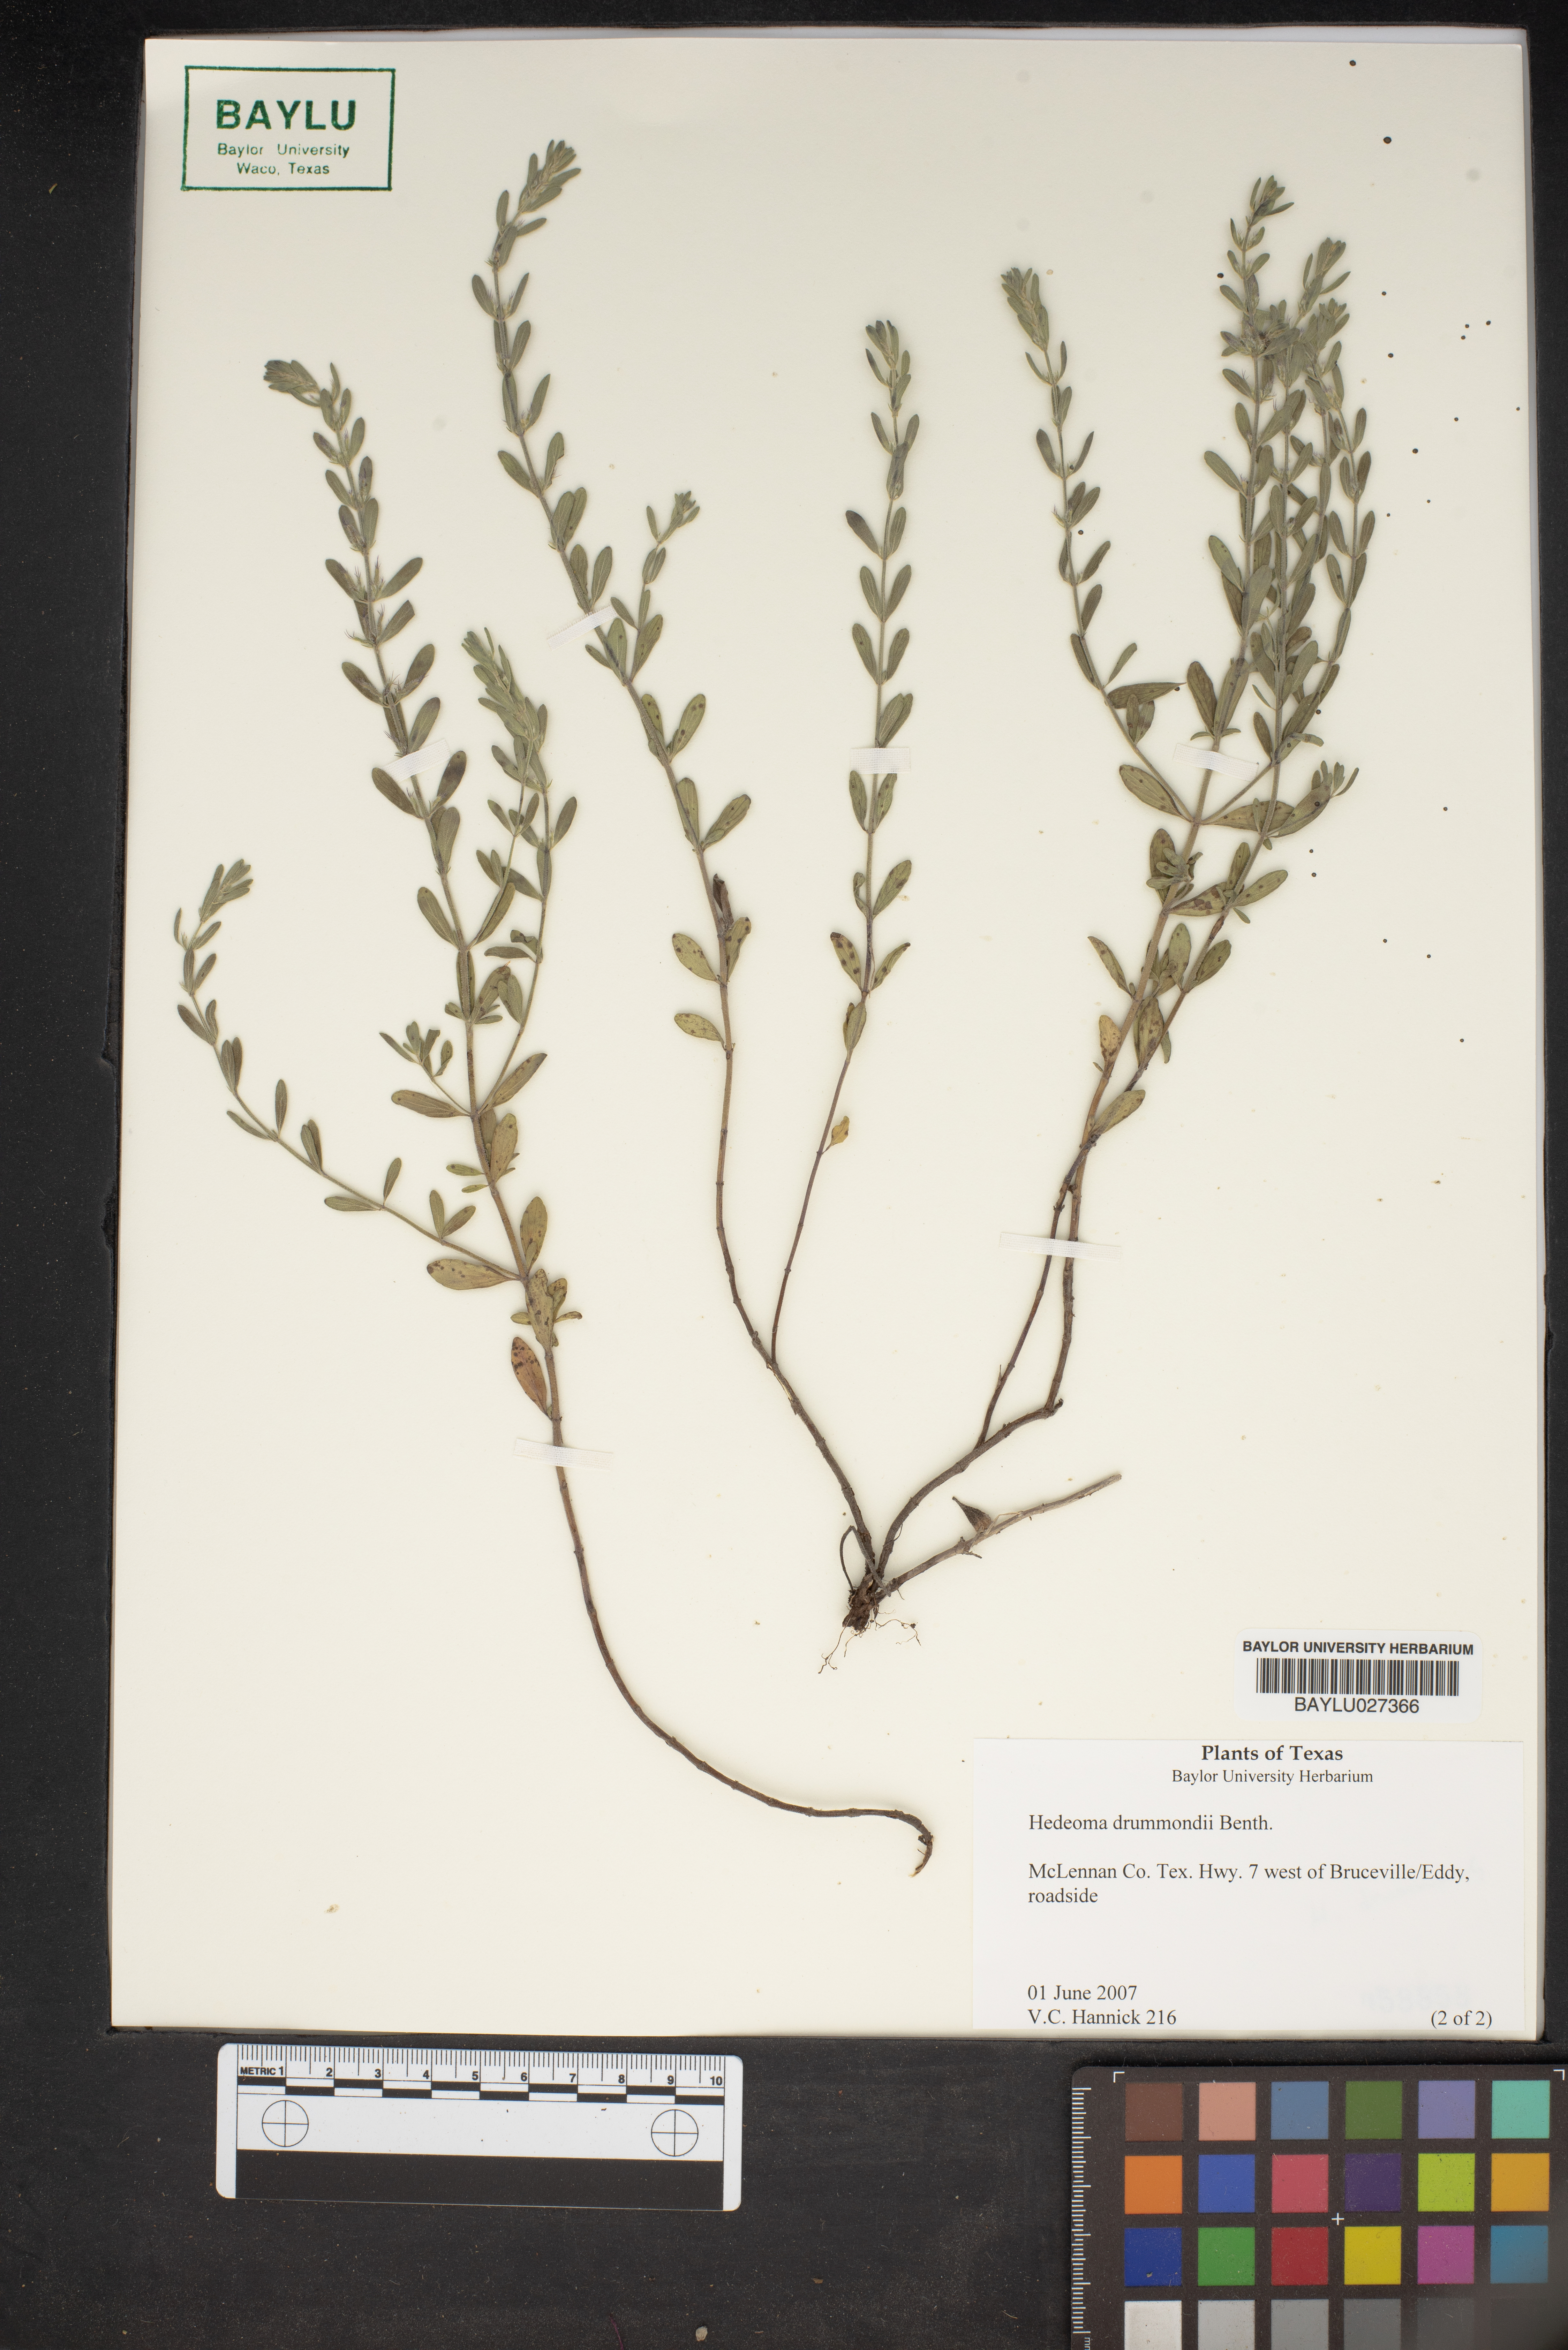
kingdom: Plantae
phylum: Tracheophyta
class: Magnoliopsida
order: Lamiales
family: Lamiaceae
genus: Hedeoma
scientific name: Hedeoma drummondii
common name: New mexico pennyroyal
